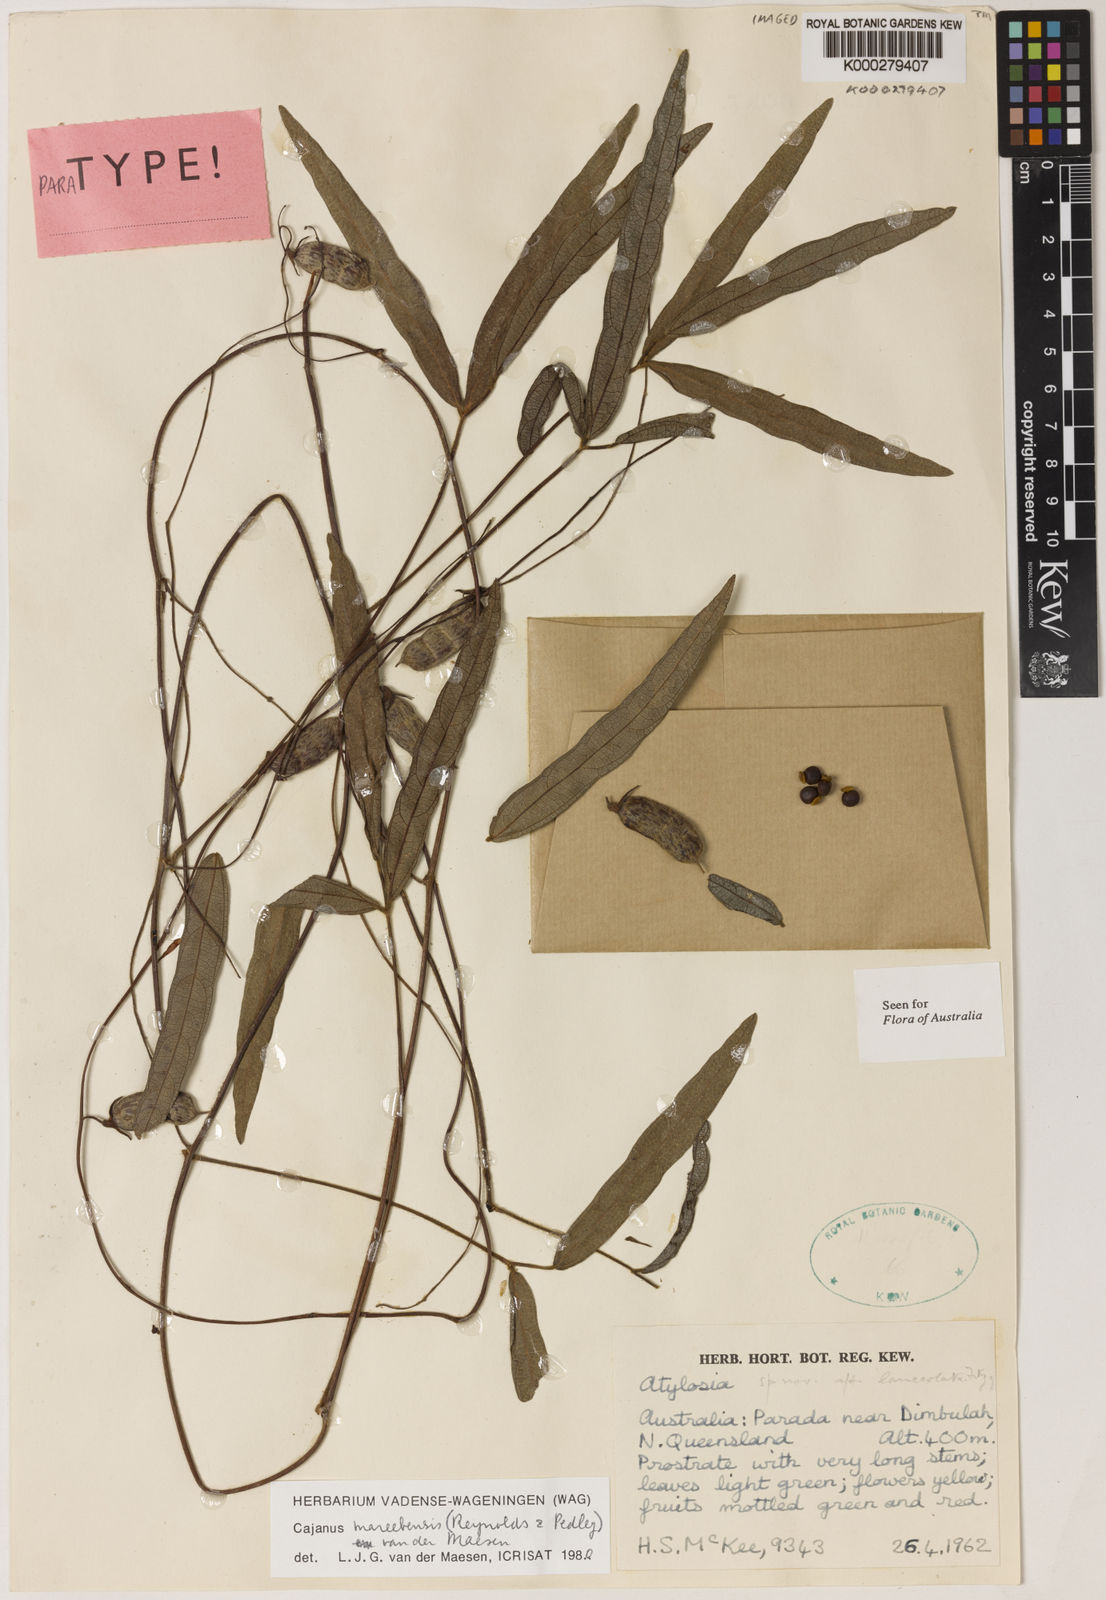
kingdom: Plantae
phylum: Tracheophyta
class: Magnoliopsida
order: Fabales
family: Fabaceae
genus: Cajanus
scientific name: Cajanus mareebensis
